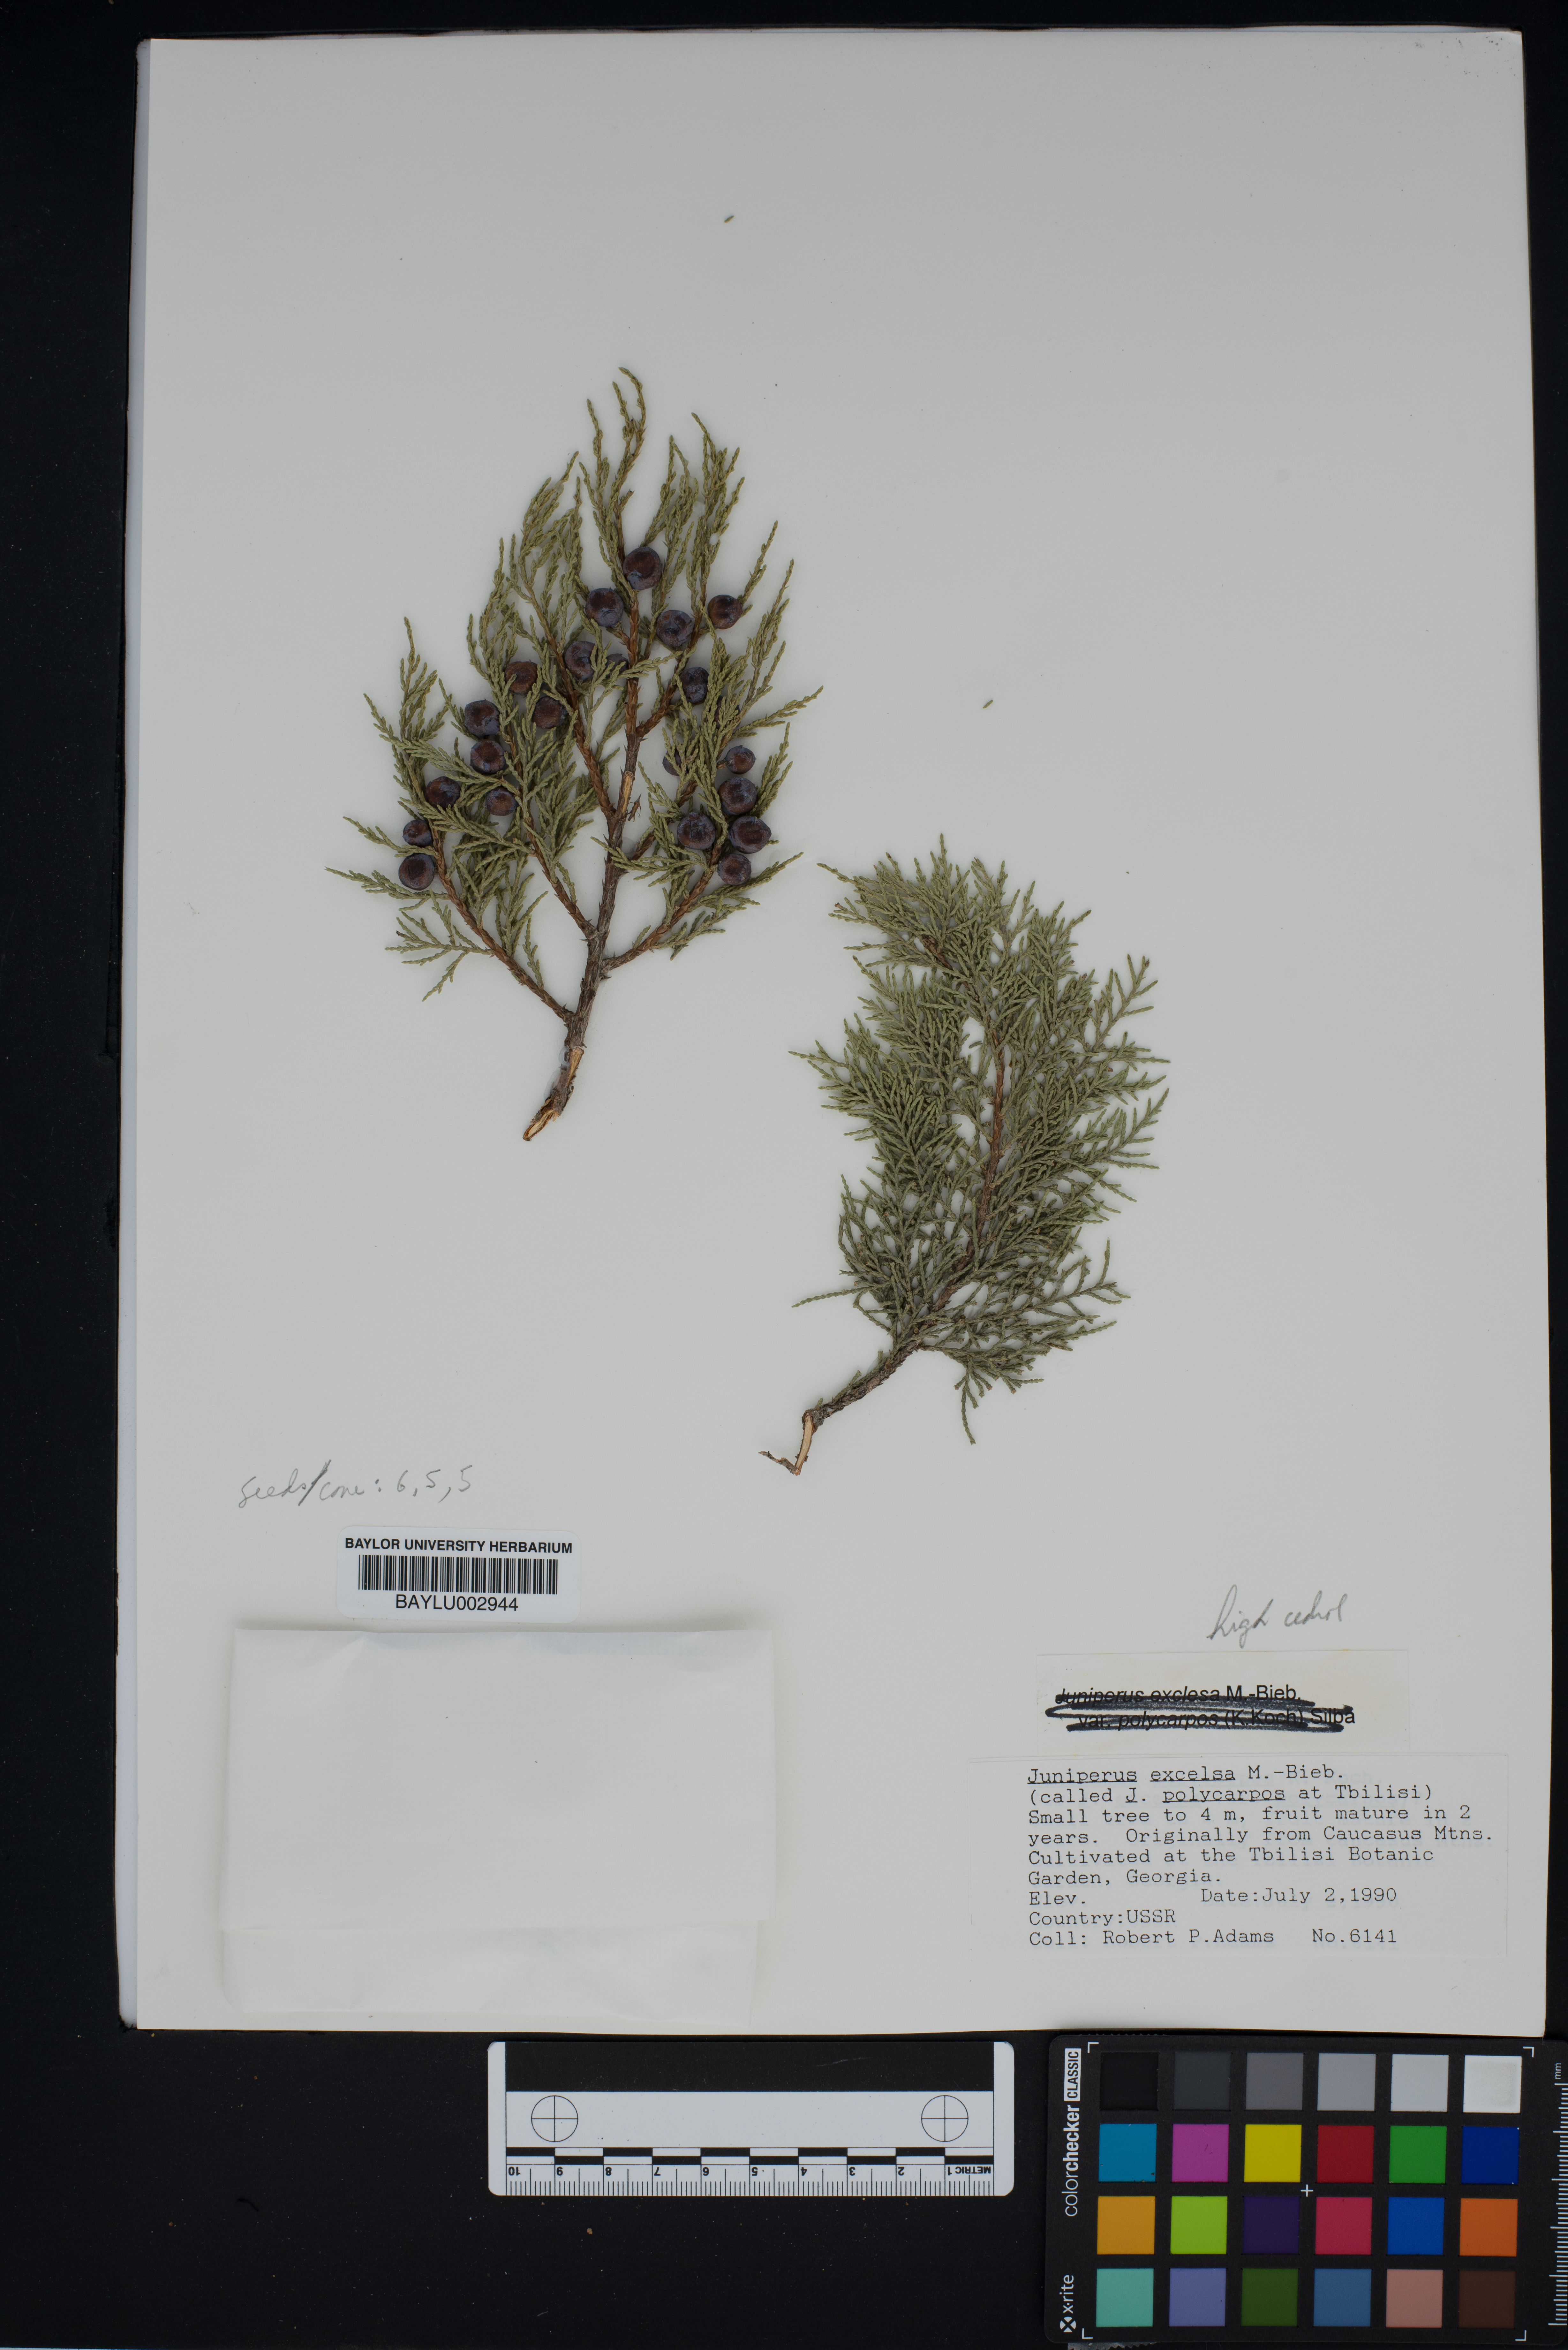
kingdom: Plantae
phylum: Tracheophyta
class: Pinopsida
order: Pinales
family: Cupressaceae
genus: Juniperus
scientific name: Juniperus excelsa
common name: Crimean juniper
